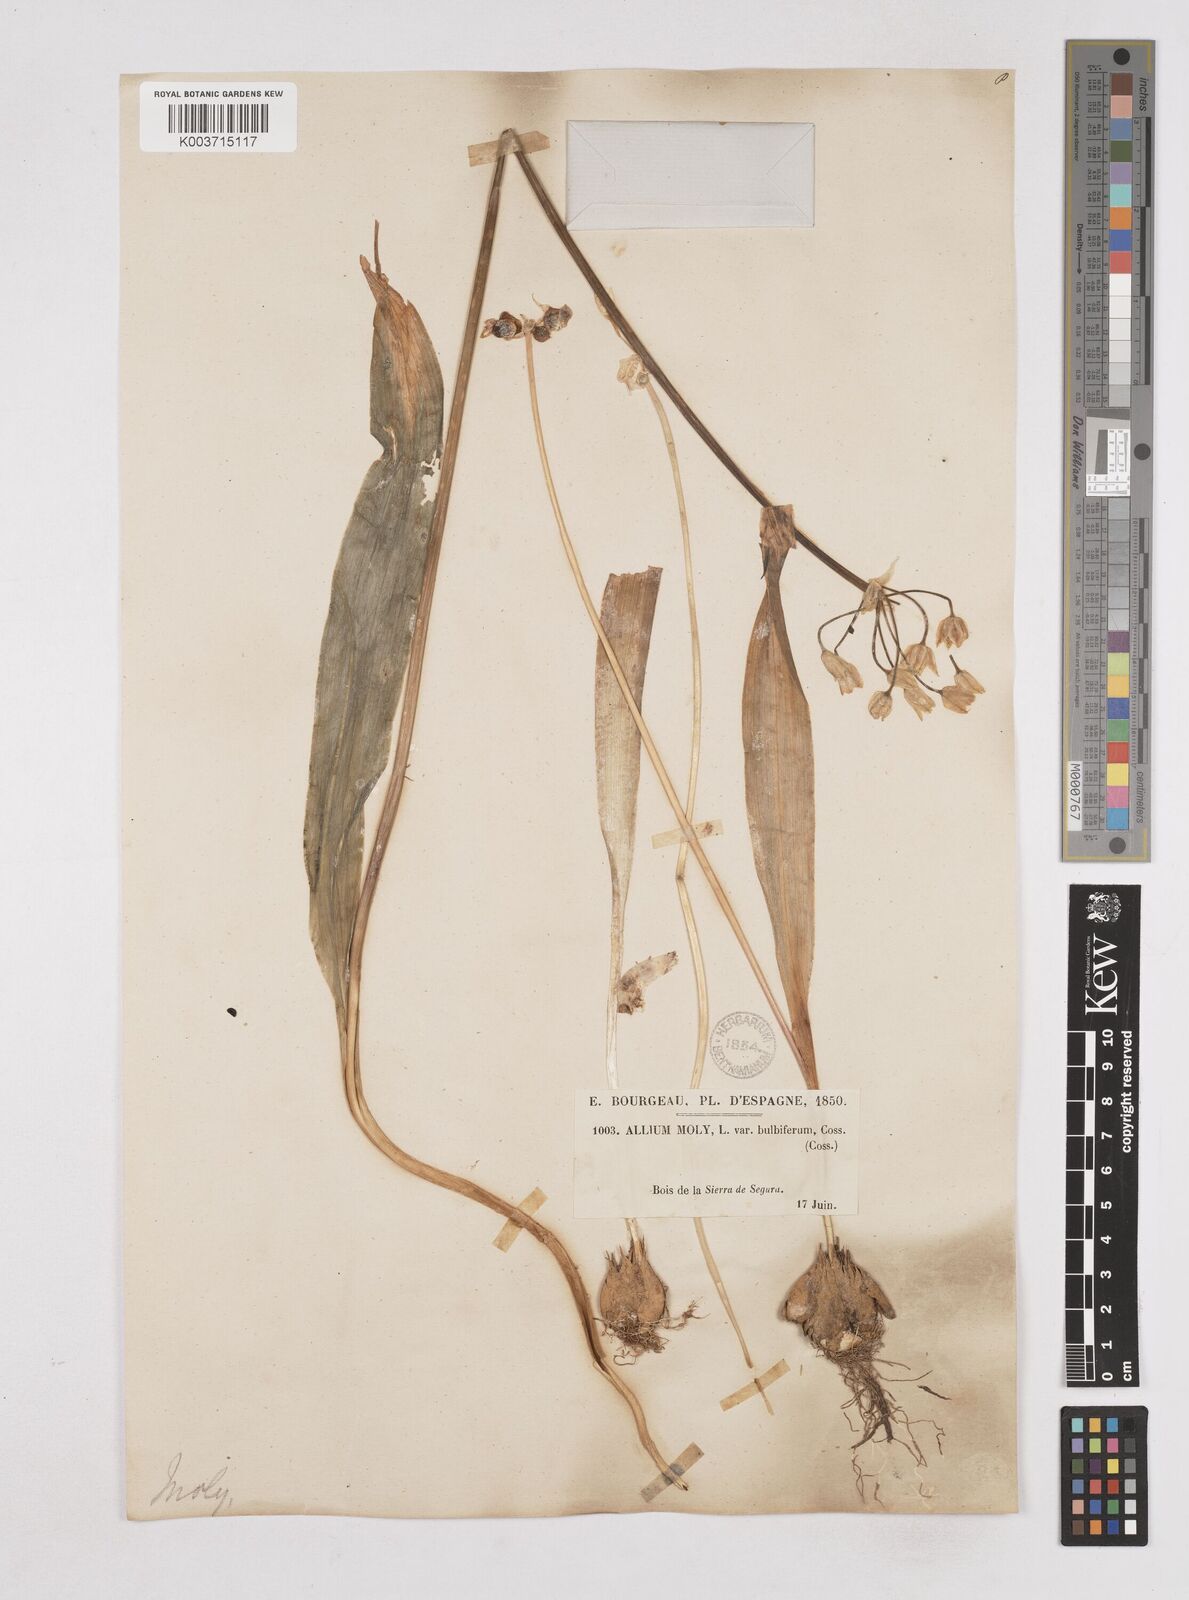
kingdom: Plantae
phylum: Tracheophyta
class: Liliopsida
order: Asparagales
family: Amaryllidaceae
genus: Allium
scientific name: Allium moly
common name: Yellow garlic
